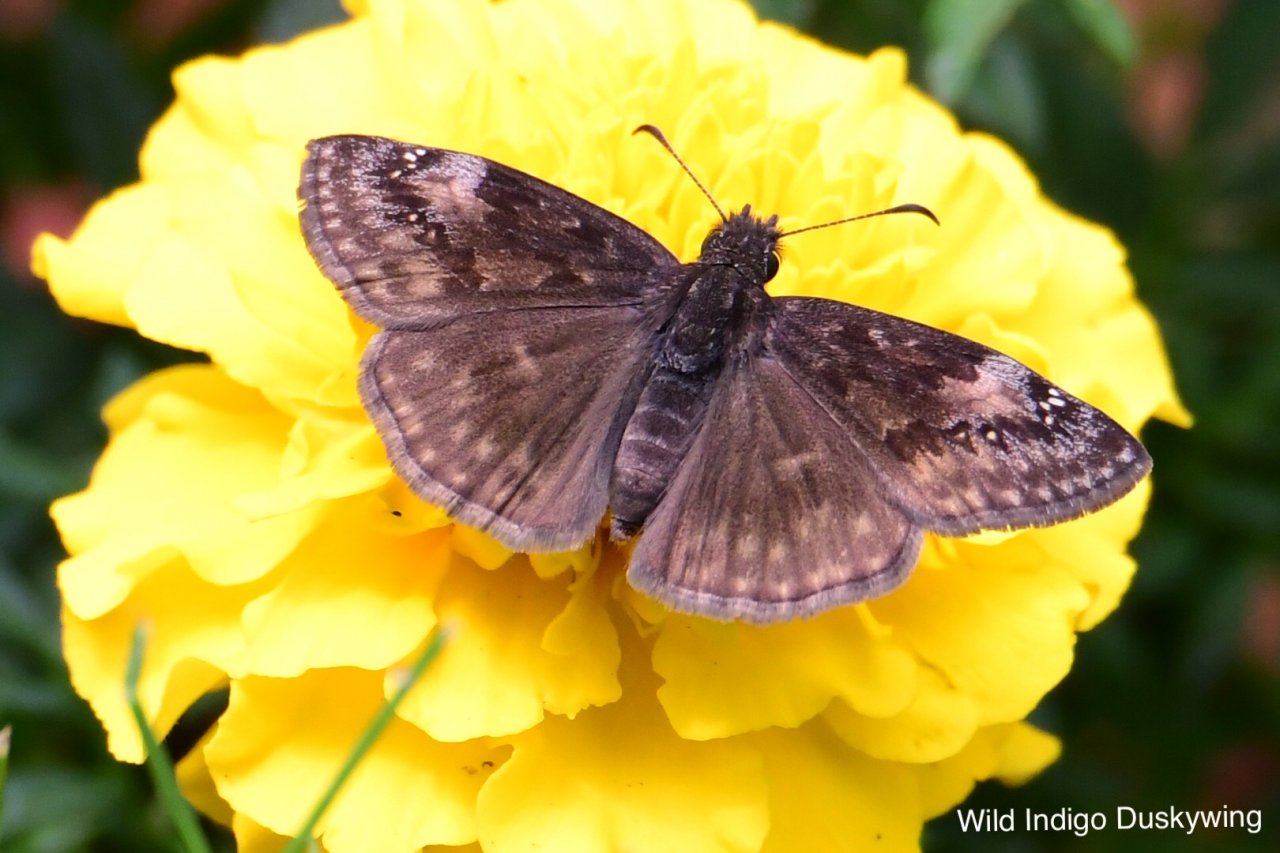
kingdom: Animalia
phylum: Arthropoda
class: Insecta
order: Lepidoptera
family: Hesperiidae
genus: Gesta
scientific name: Gesta
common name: Wild Indigo Duskywing
